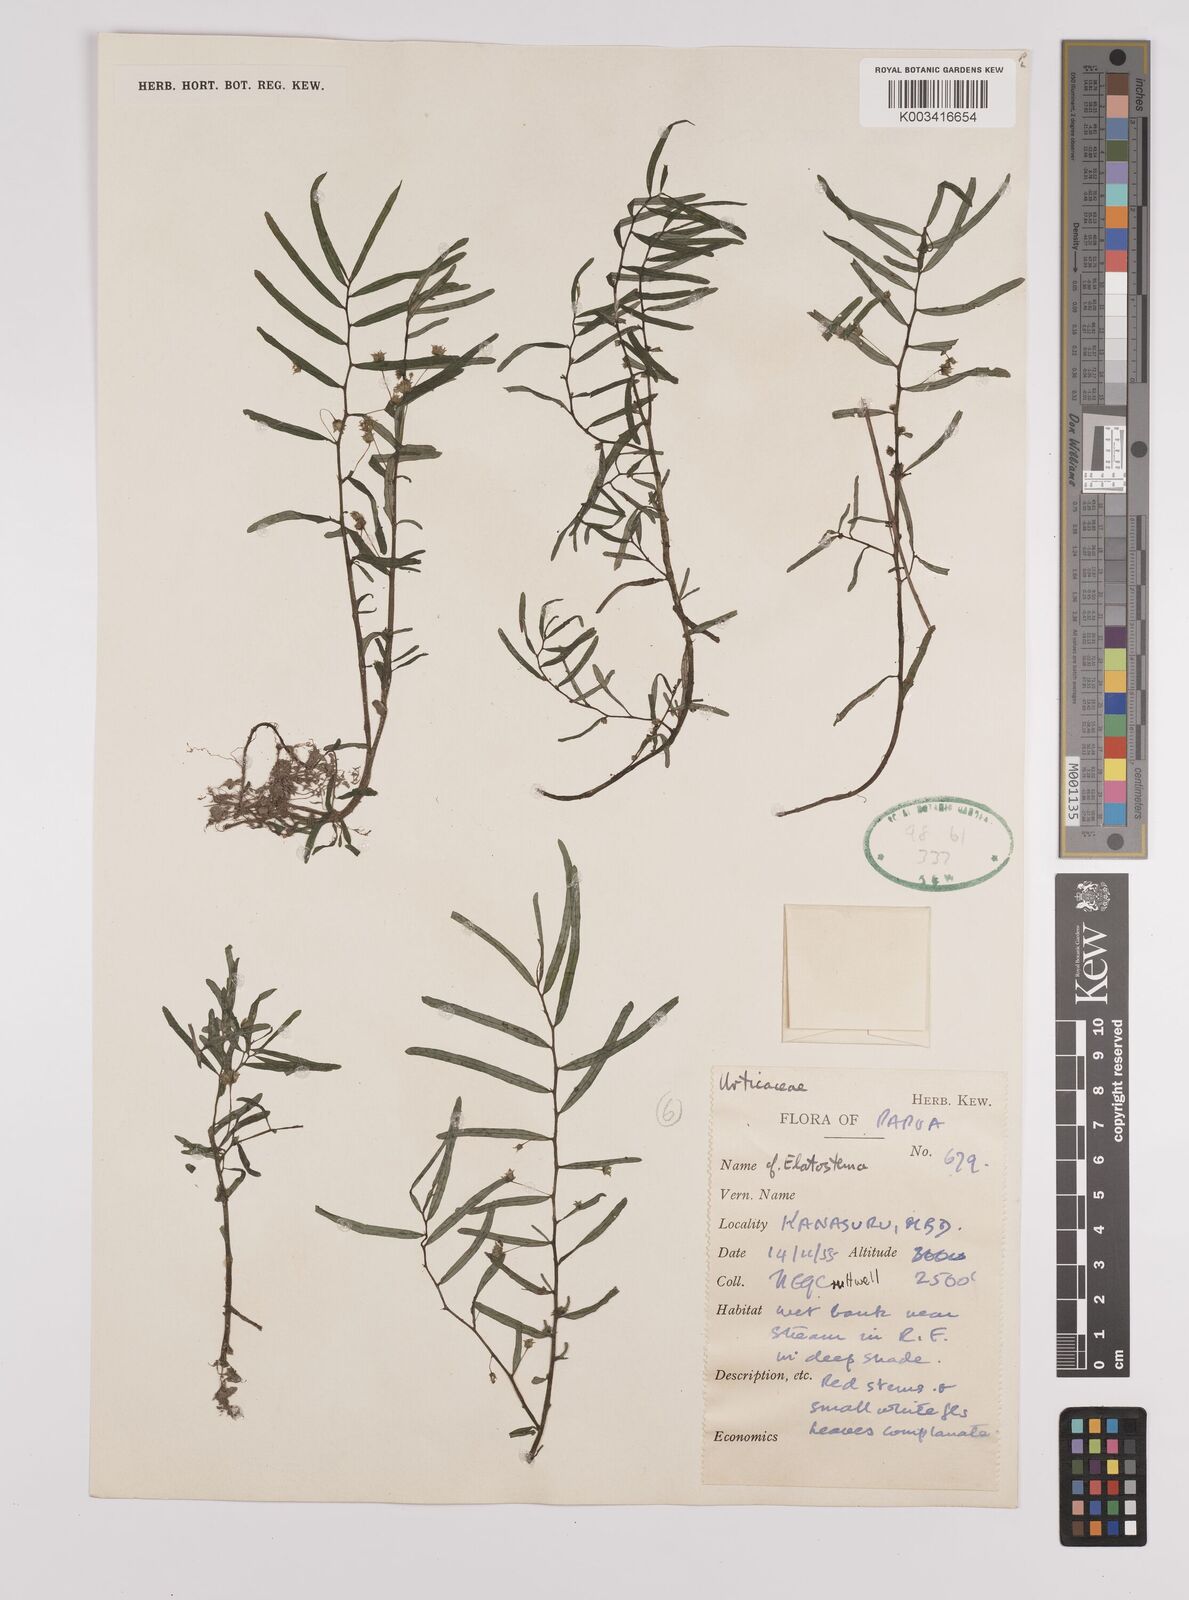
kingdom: Plantae
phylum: Tracheophyta
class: Magnoliopsida
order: Rosales
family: Urticaceae
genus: Elatostema
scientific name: Elatostema
